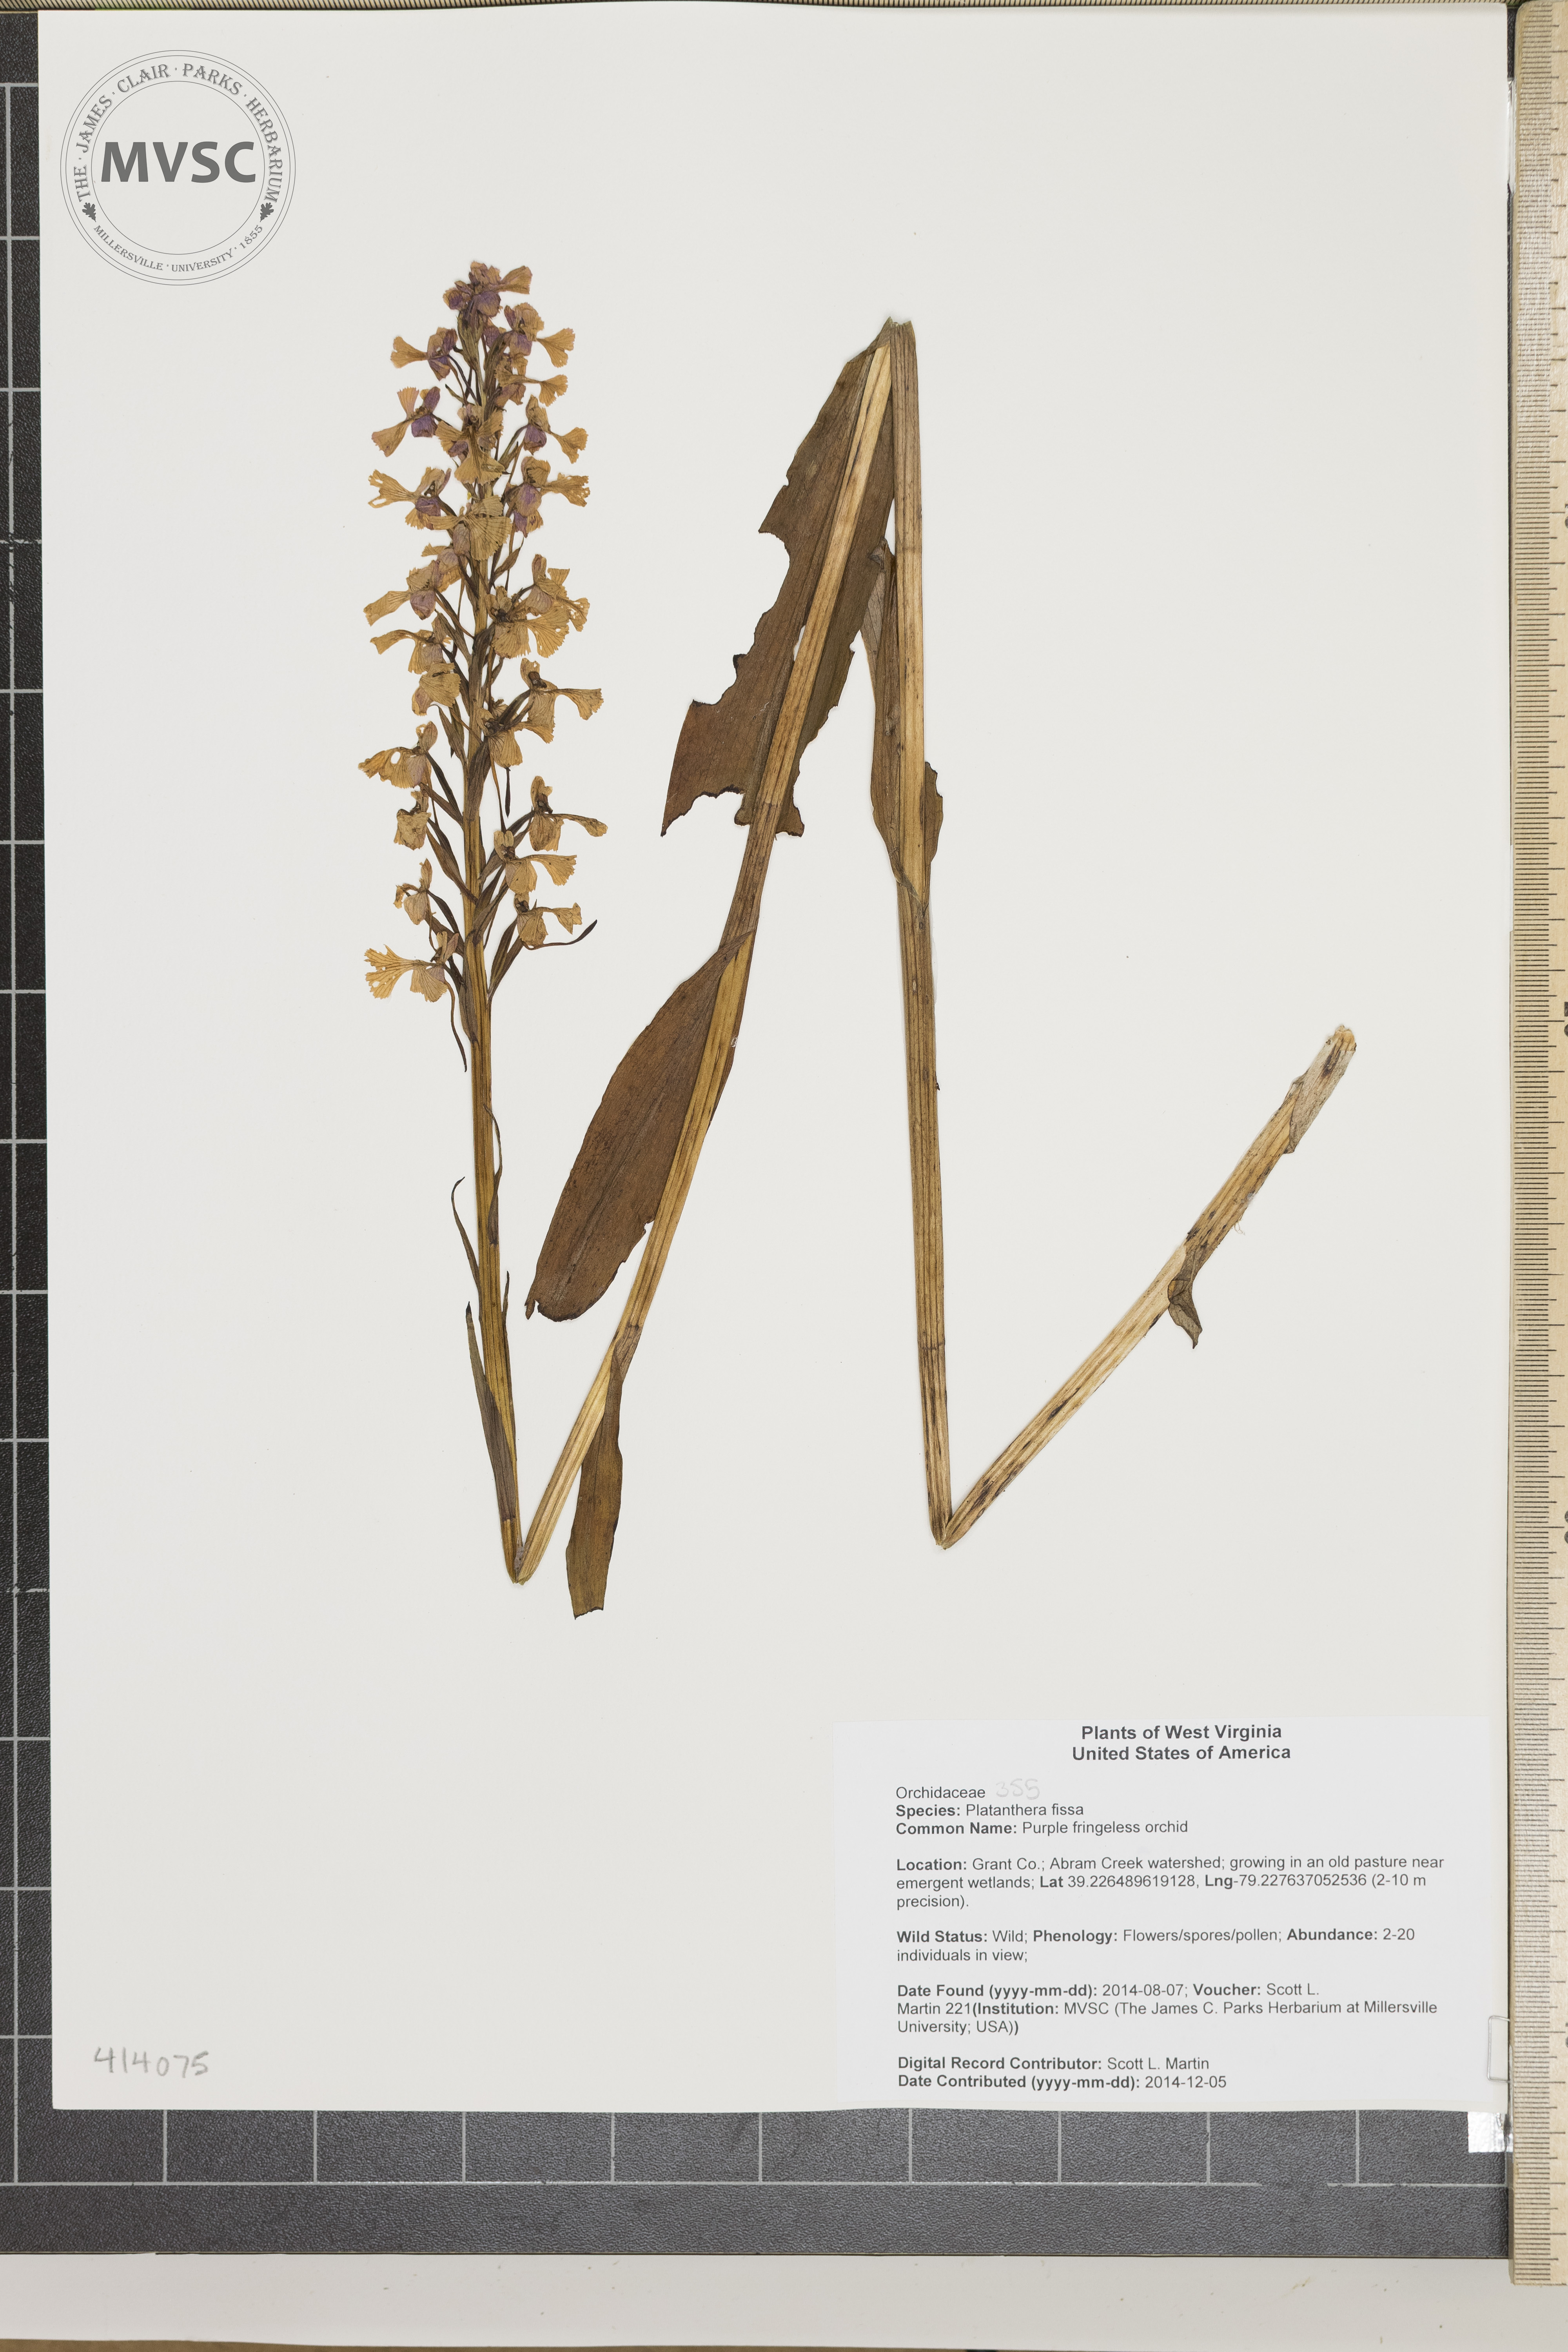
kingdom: Plantae
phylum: Tracheophyta
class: Liliopsida
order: Asparagales
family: Orchidaceae
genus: Platanthera
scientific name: Platanthera psycodes
